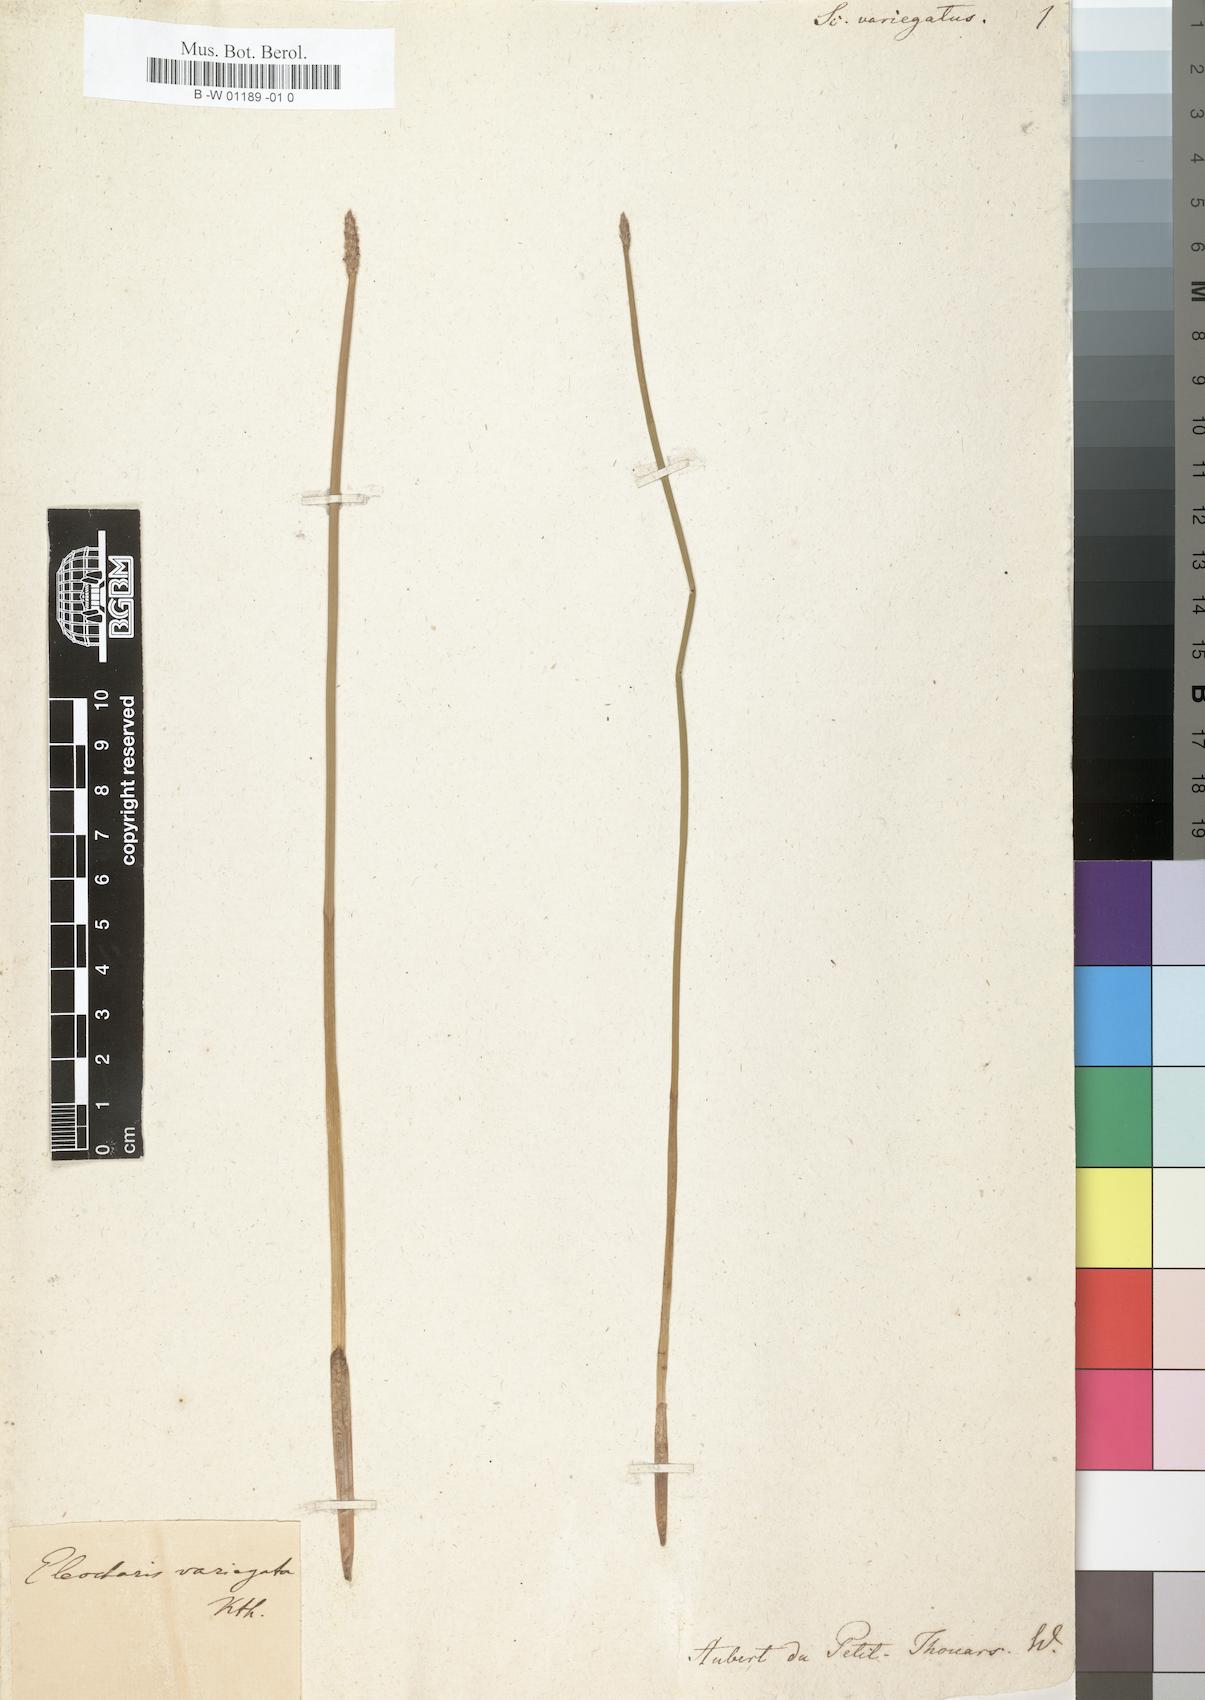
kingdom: Plantae
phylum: Tracheophyta
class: Liliopsida
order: Poales
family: Cyperaceae
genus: Eleocharis
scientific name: Eleocharis variegata
